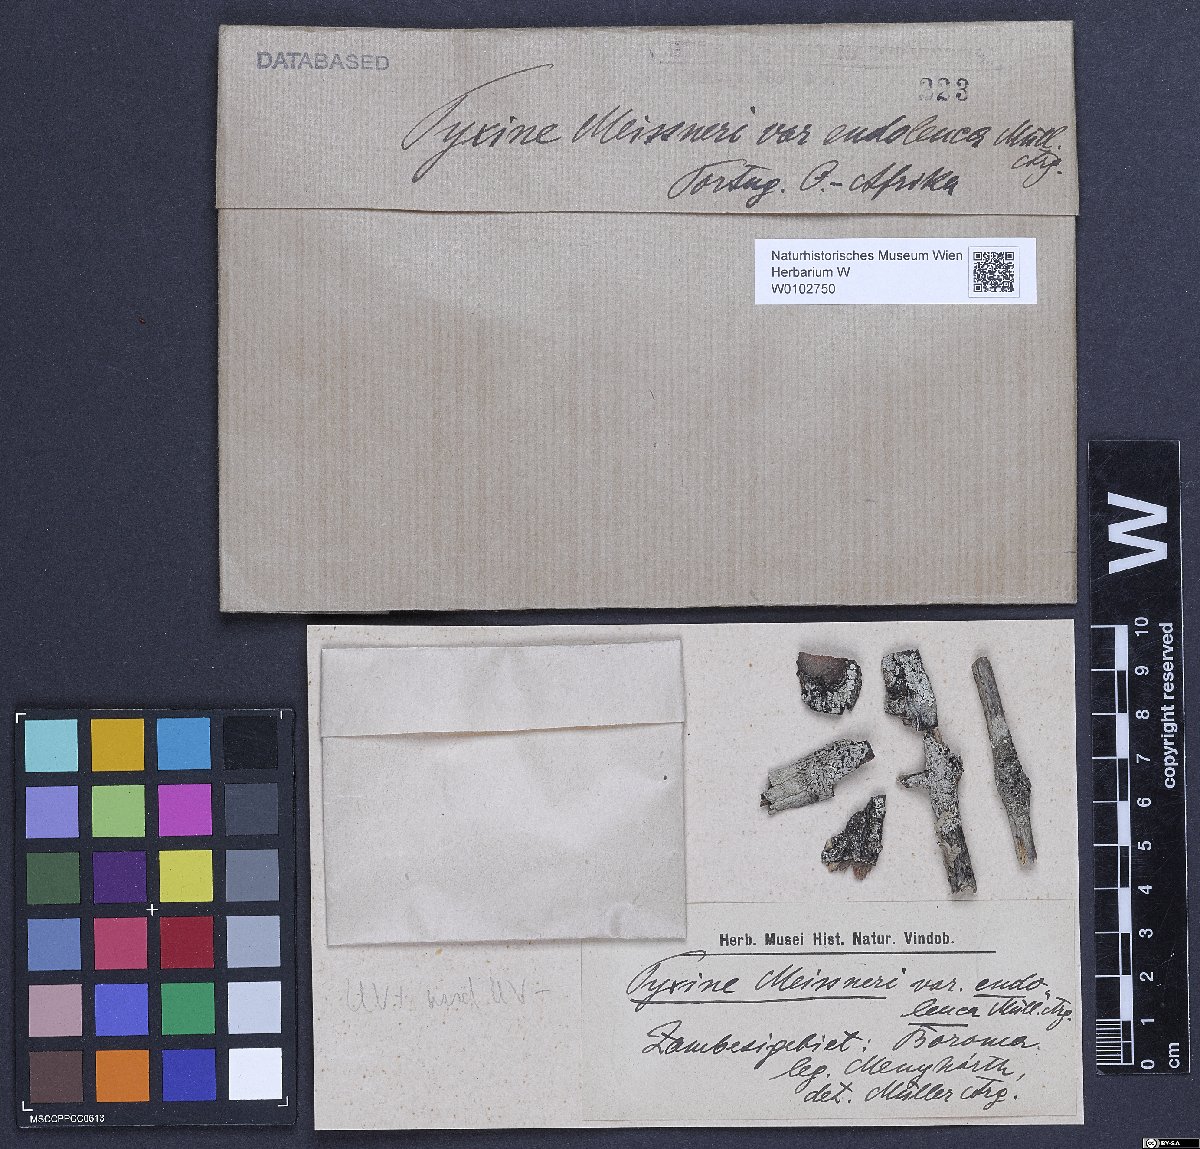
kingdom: Fungi
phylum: Ascomycota
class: Lecanoromycetes
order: Caliciales
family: Caliciaceae
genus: Pyxine
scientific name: Pyxine petricola
